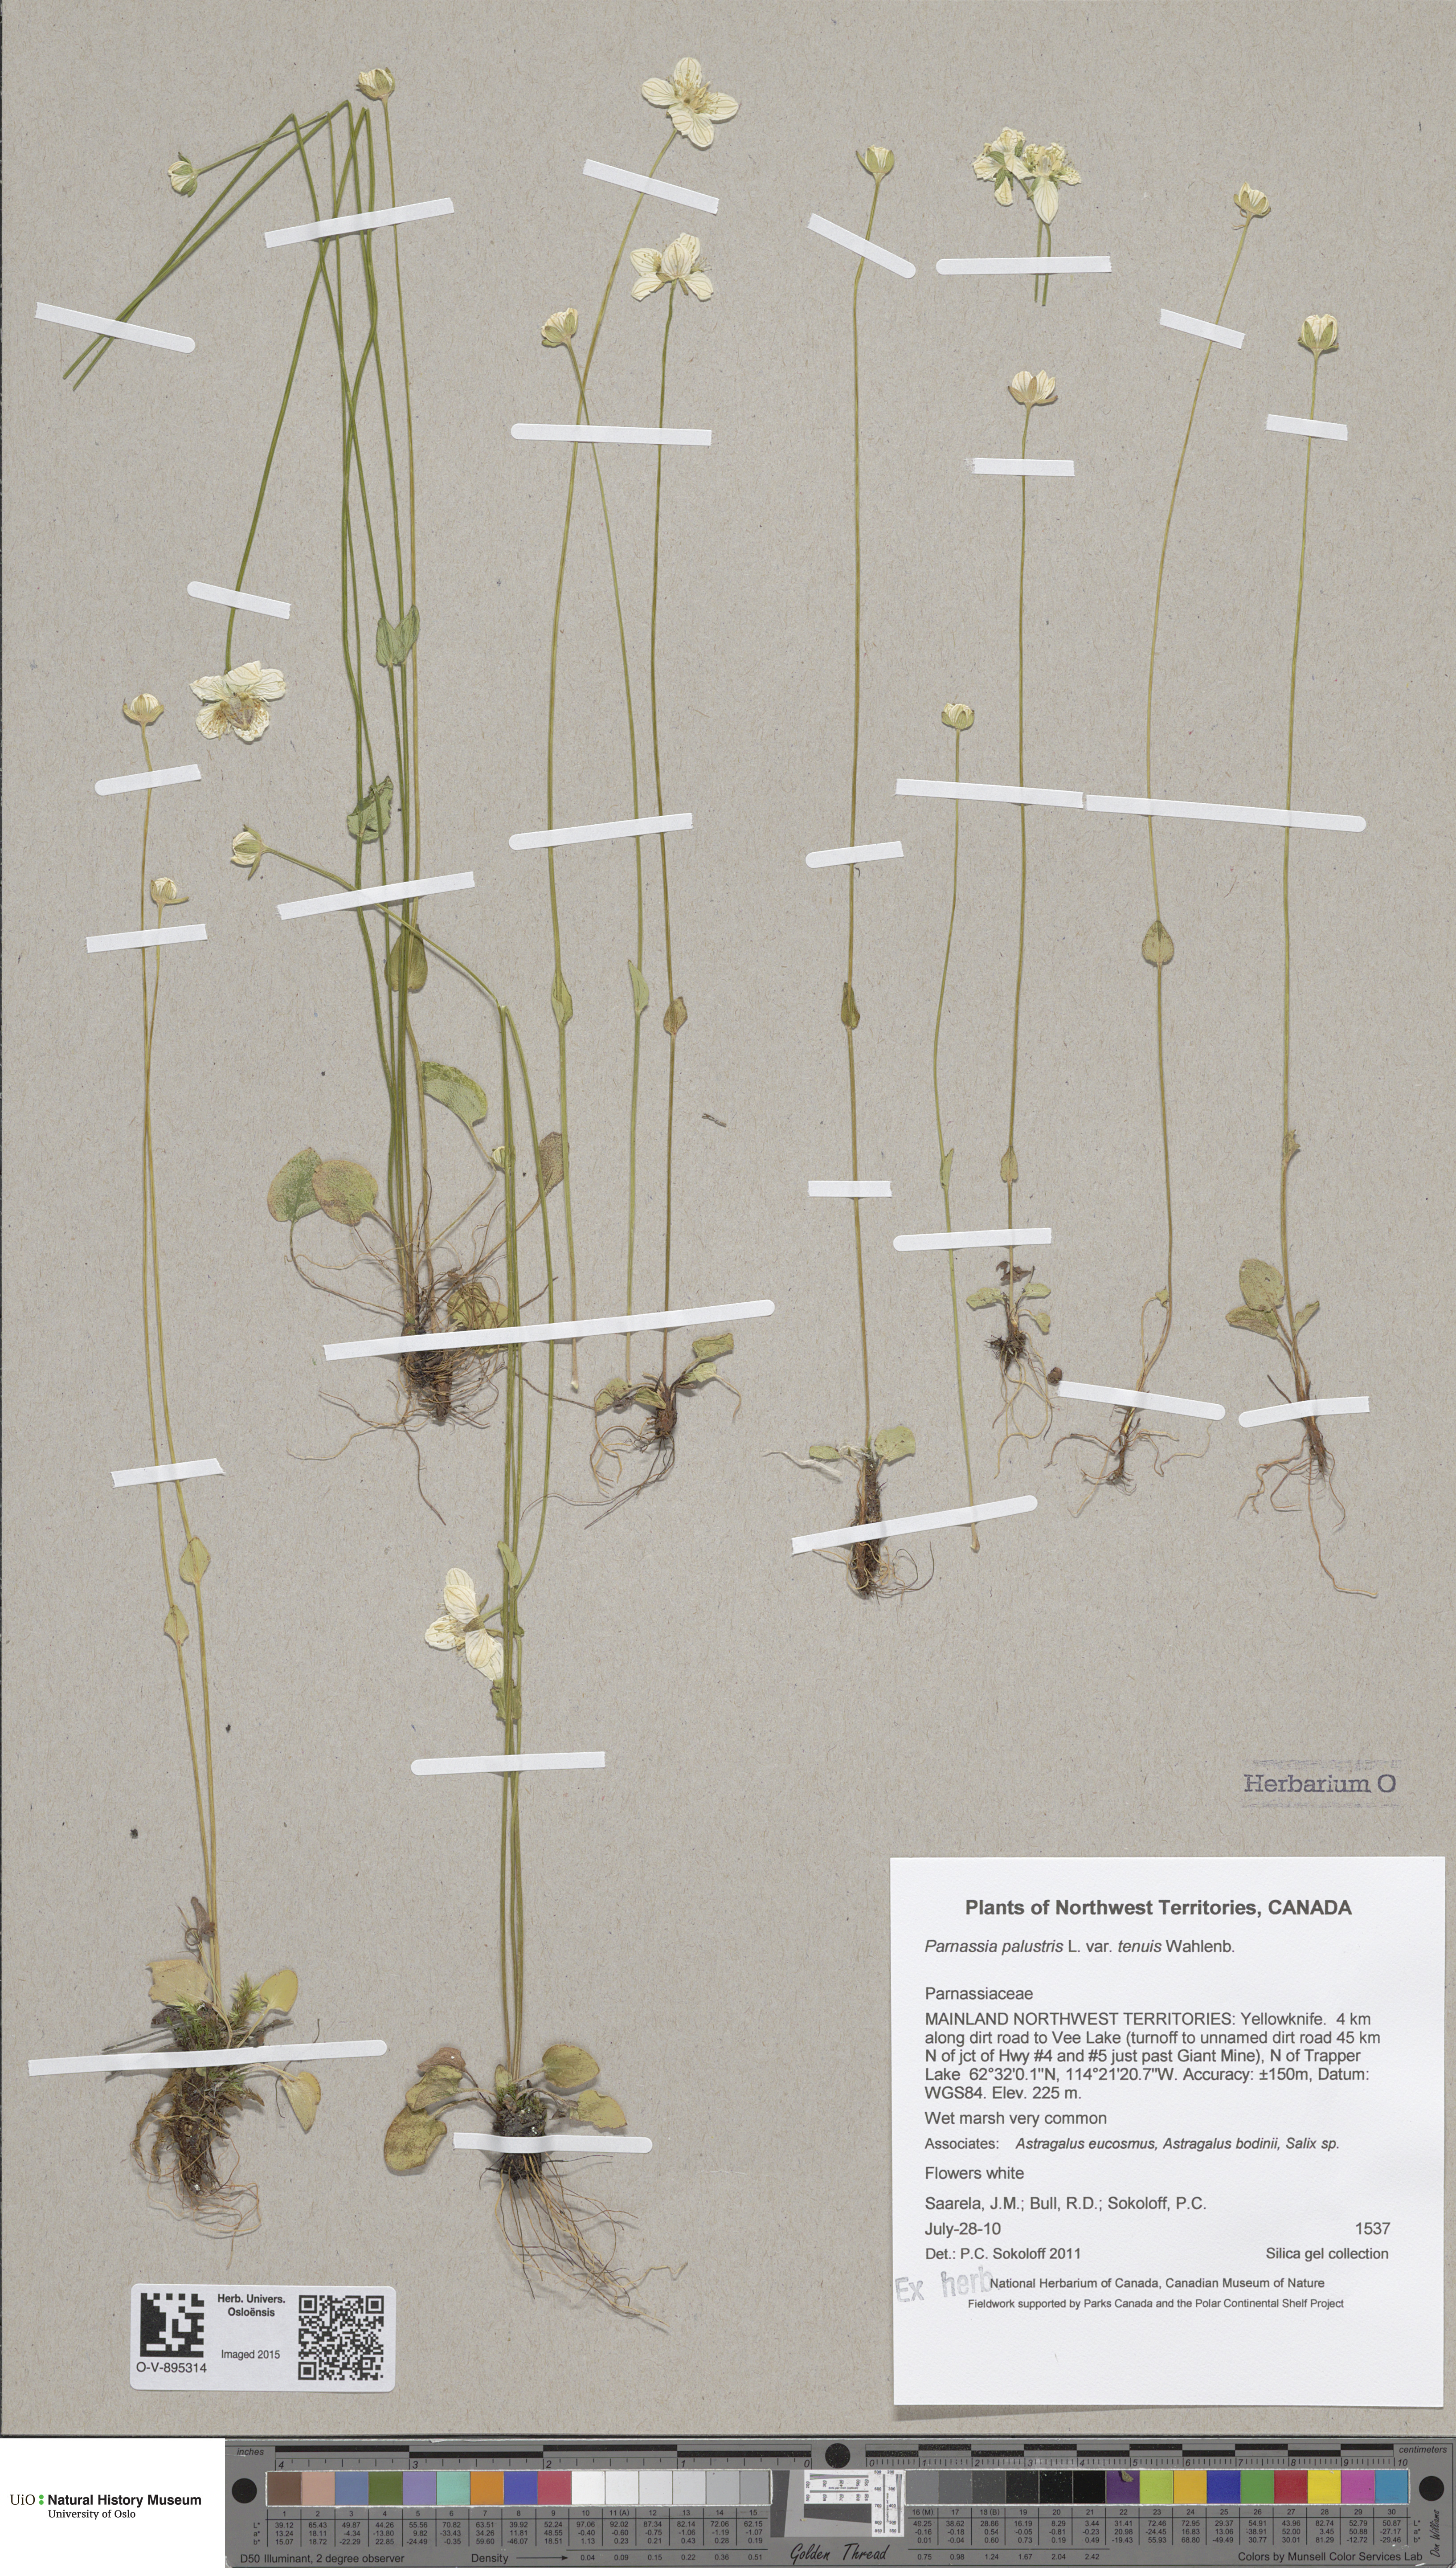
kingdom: Plantae
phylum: Tracheophyta
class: Magnoliopsida
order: Celastrales
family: Parnassiaceae
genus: Parnassia
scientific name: Parnassia palustris
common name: Grass-of-parnassus
